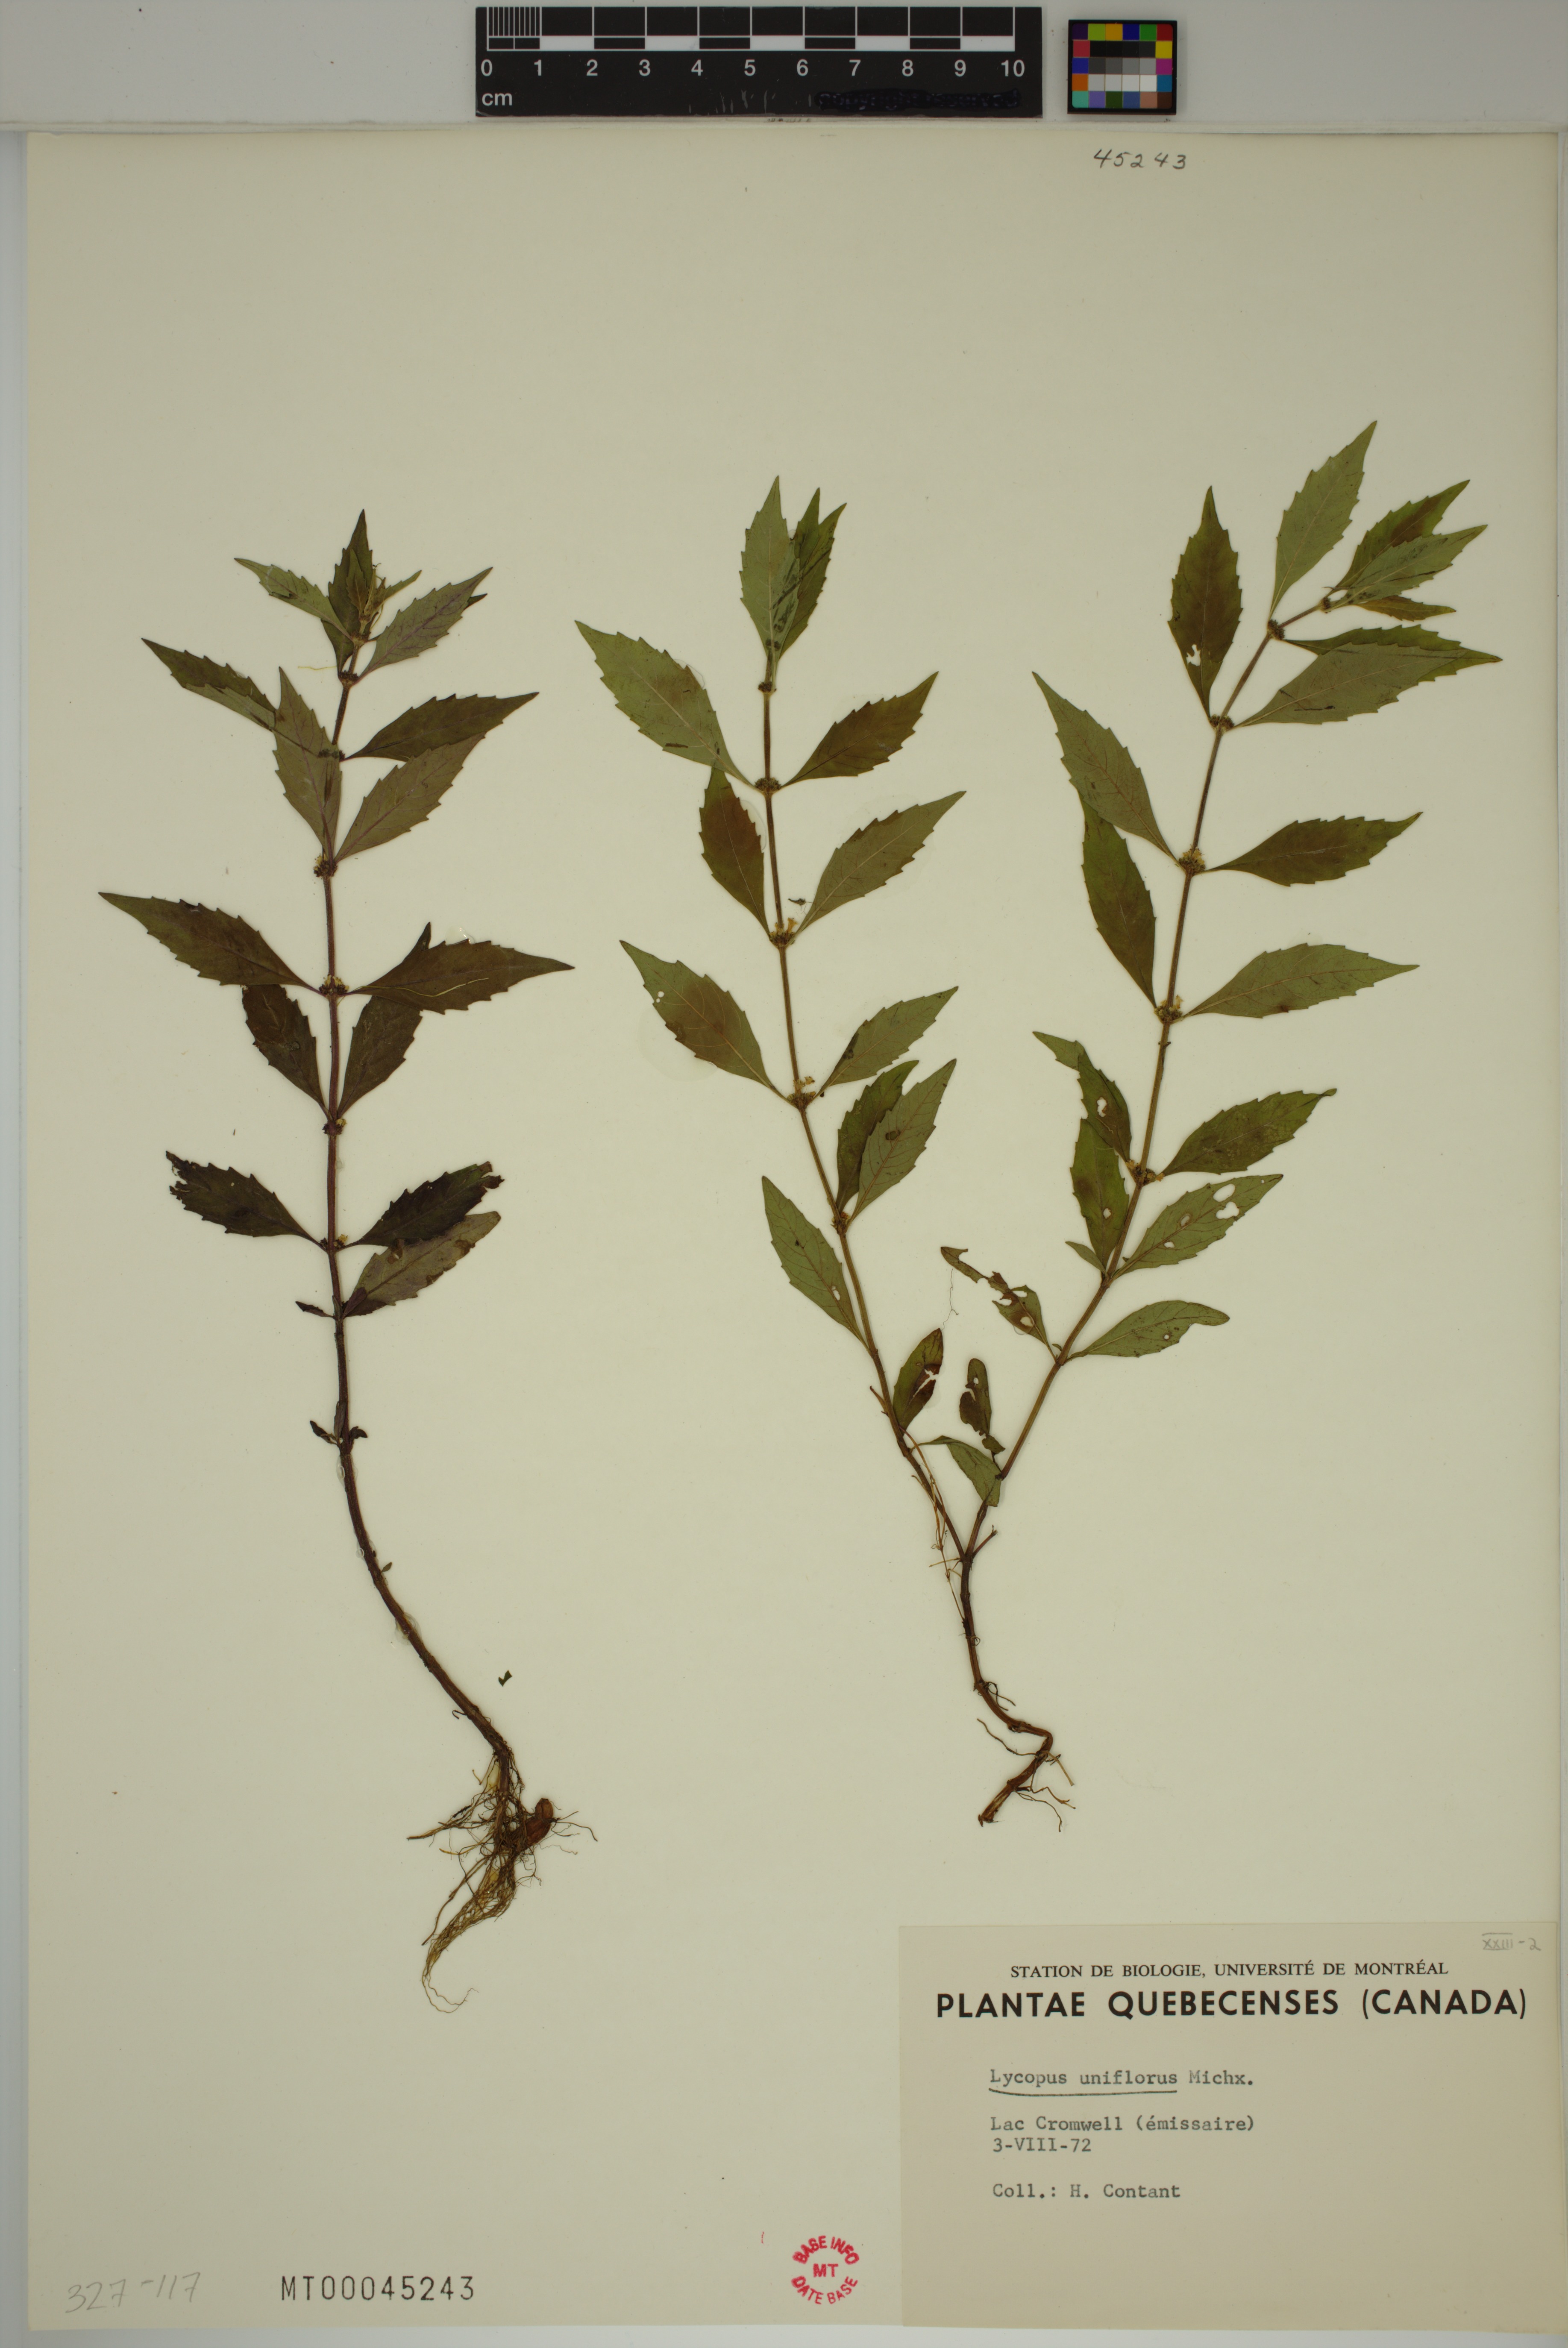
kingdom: Plantae
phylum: Tracheophyta
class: Magnoliopsida
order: Lamiales
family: Lamiaceae
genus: Lycopus
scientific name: Lycopus uniflorus
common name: Northern bugleweed
